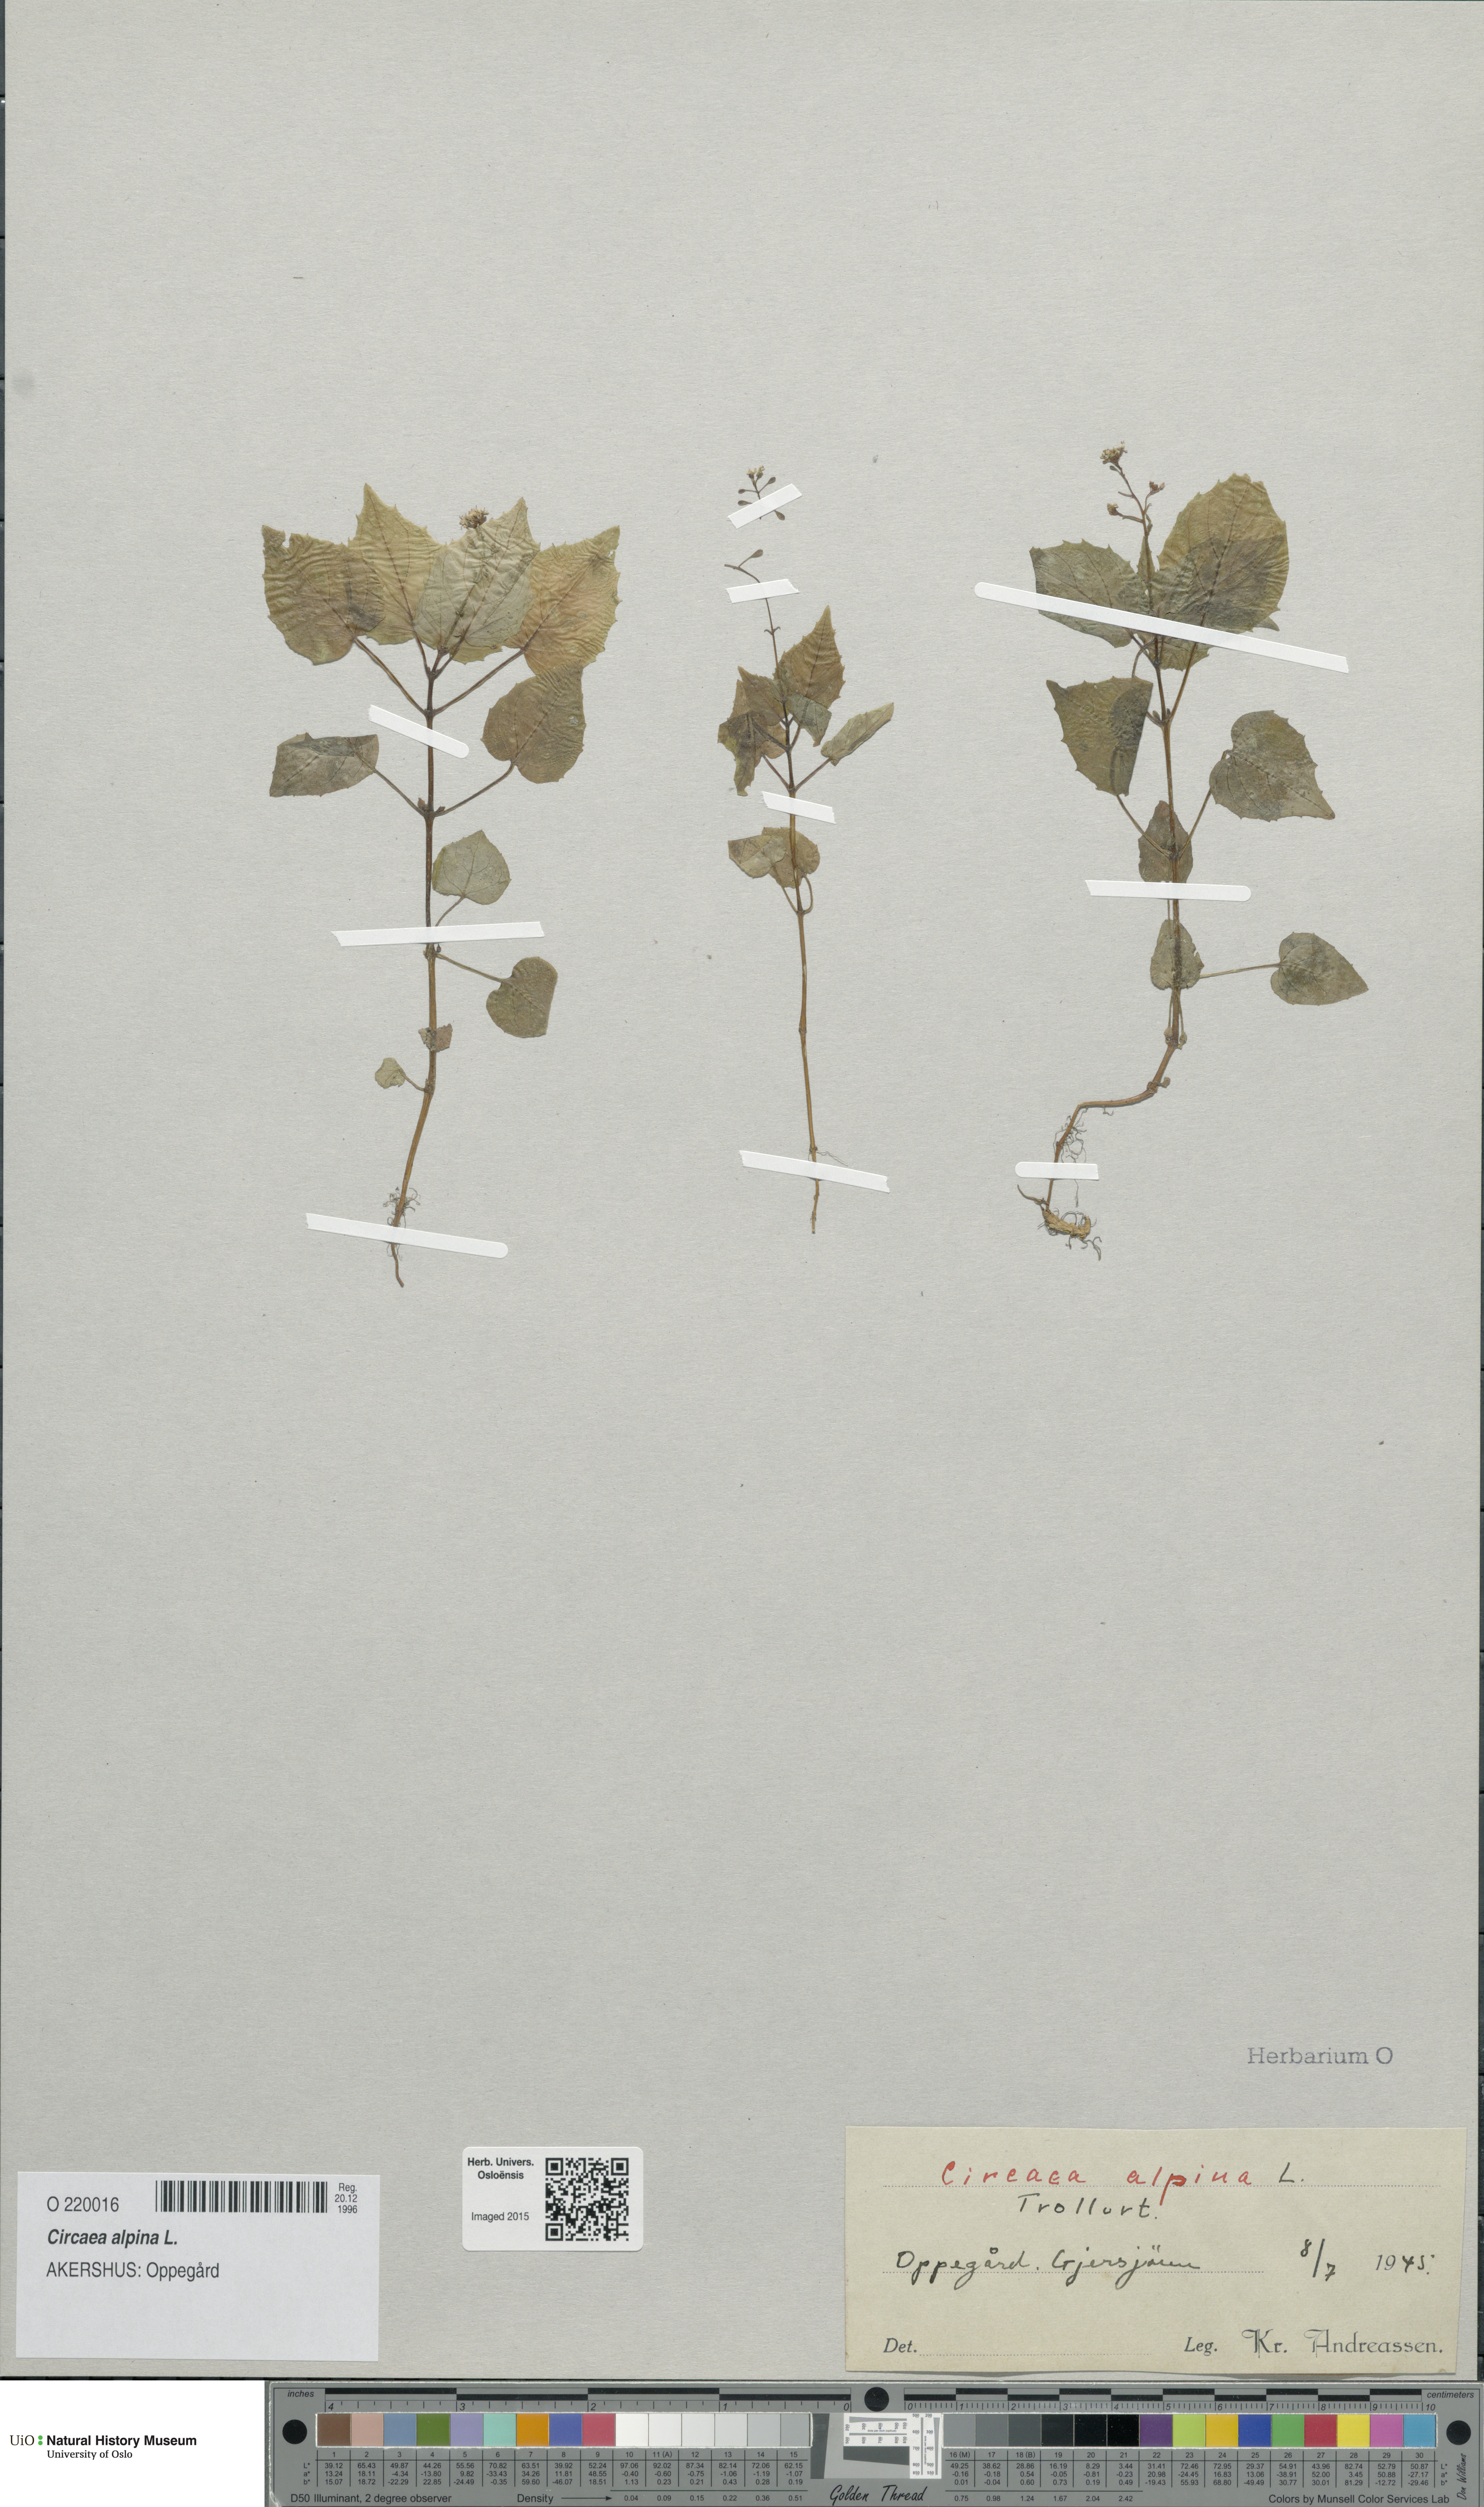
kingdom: Plantae
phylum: Tracheophyta
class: Magnoliopsida
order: Myrtales
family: Onagraceae
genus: Circaea
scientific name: Circaea alpina
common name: Alpine enchanter's-nightshade
